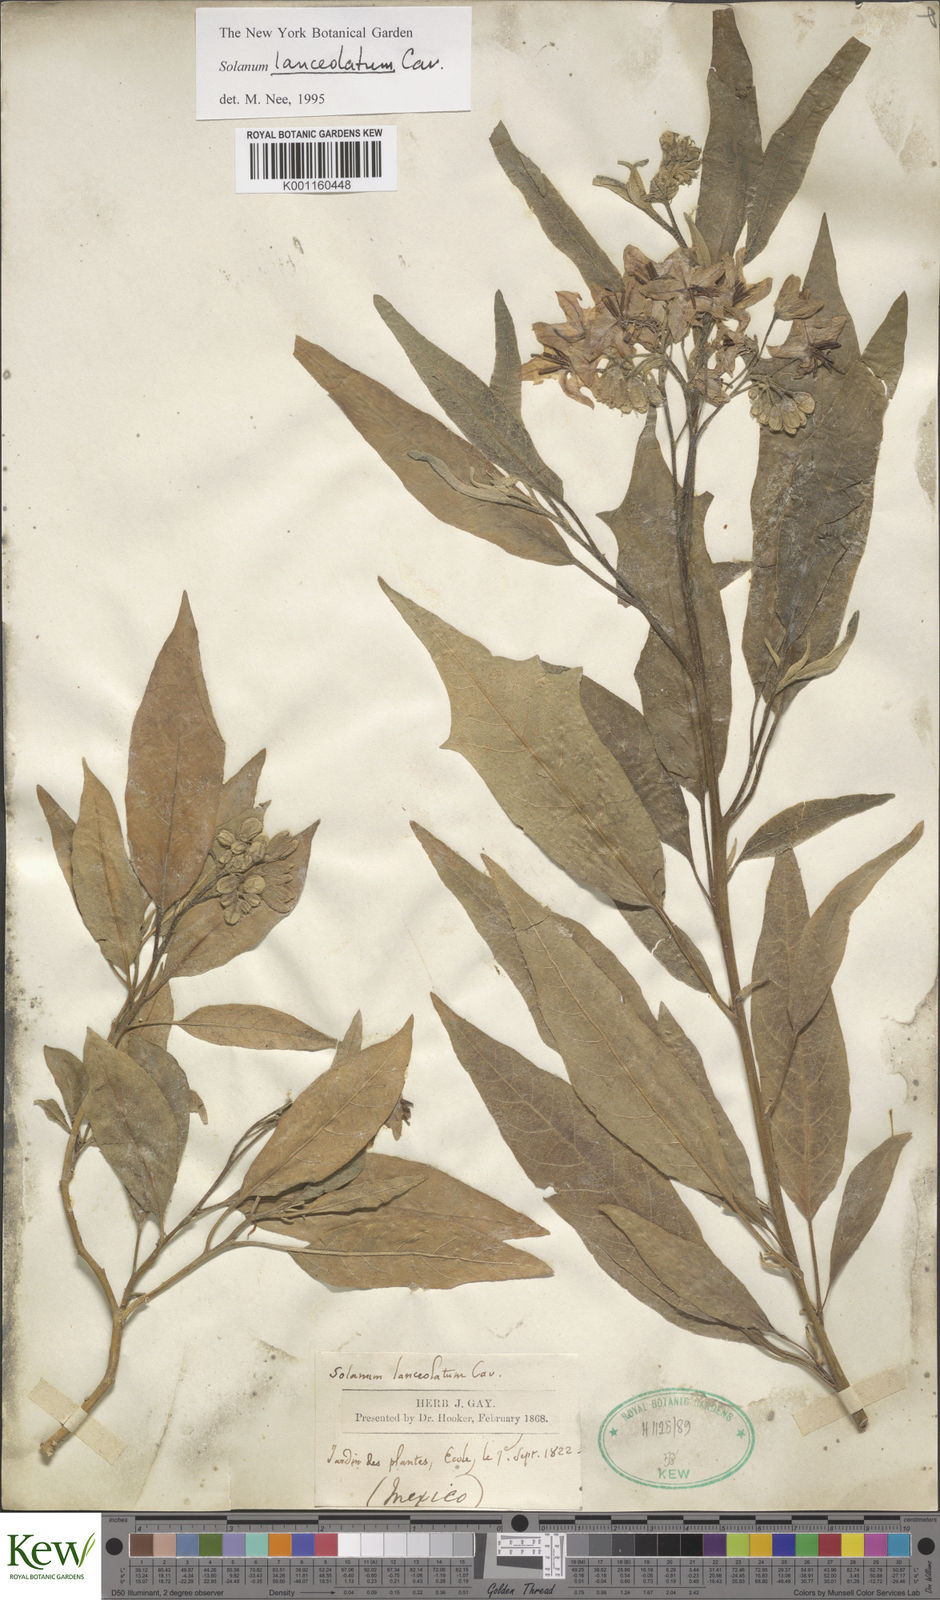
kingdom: Plantae
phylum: Tracheophyta
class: Magnoliopsida
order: Solanales
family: Solanaceae
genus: Solanum
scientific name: Solanum lanceolatum
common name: Orangeberry nightshade
